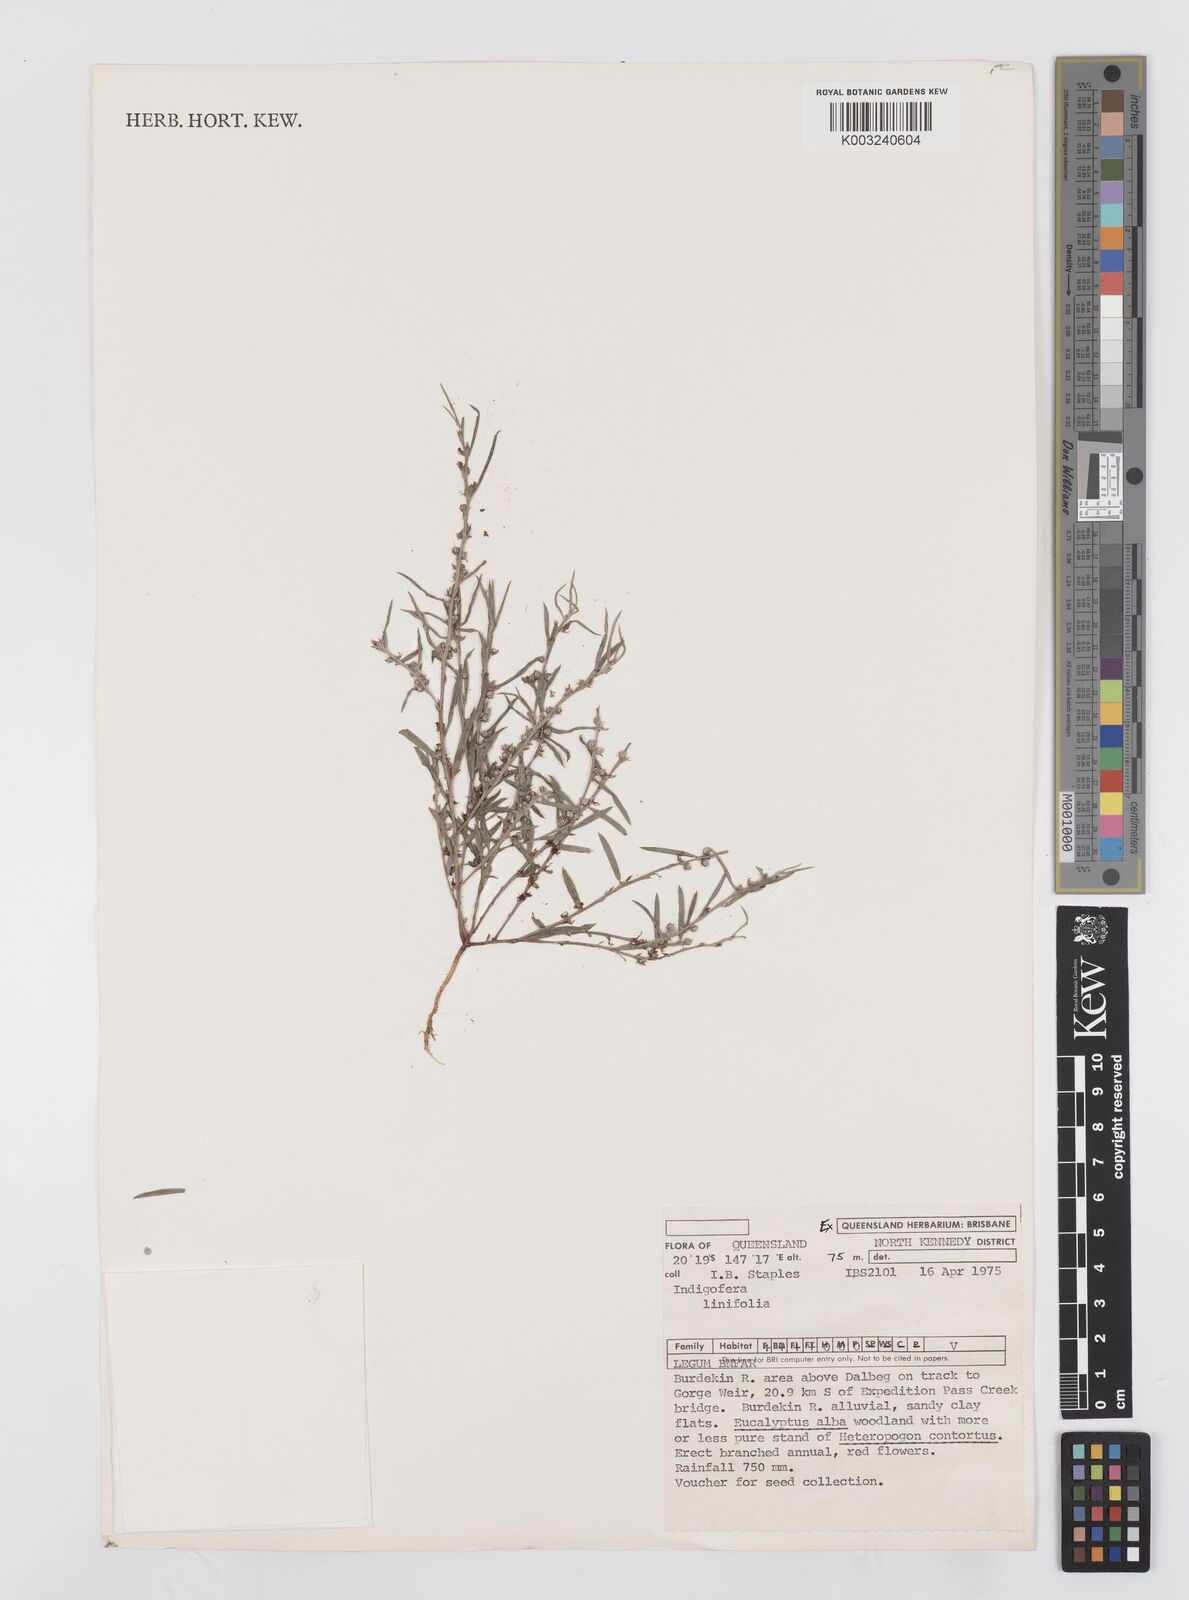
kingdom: Plantae
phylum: Tracheophyta
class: Magnoliopsida
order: Fabales
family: Fabaceae
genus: Indigofera
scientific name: Indigofera linifolia
